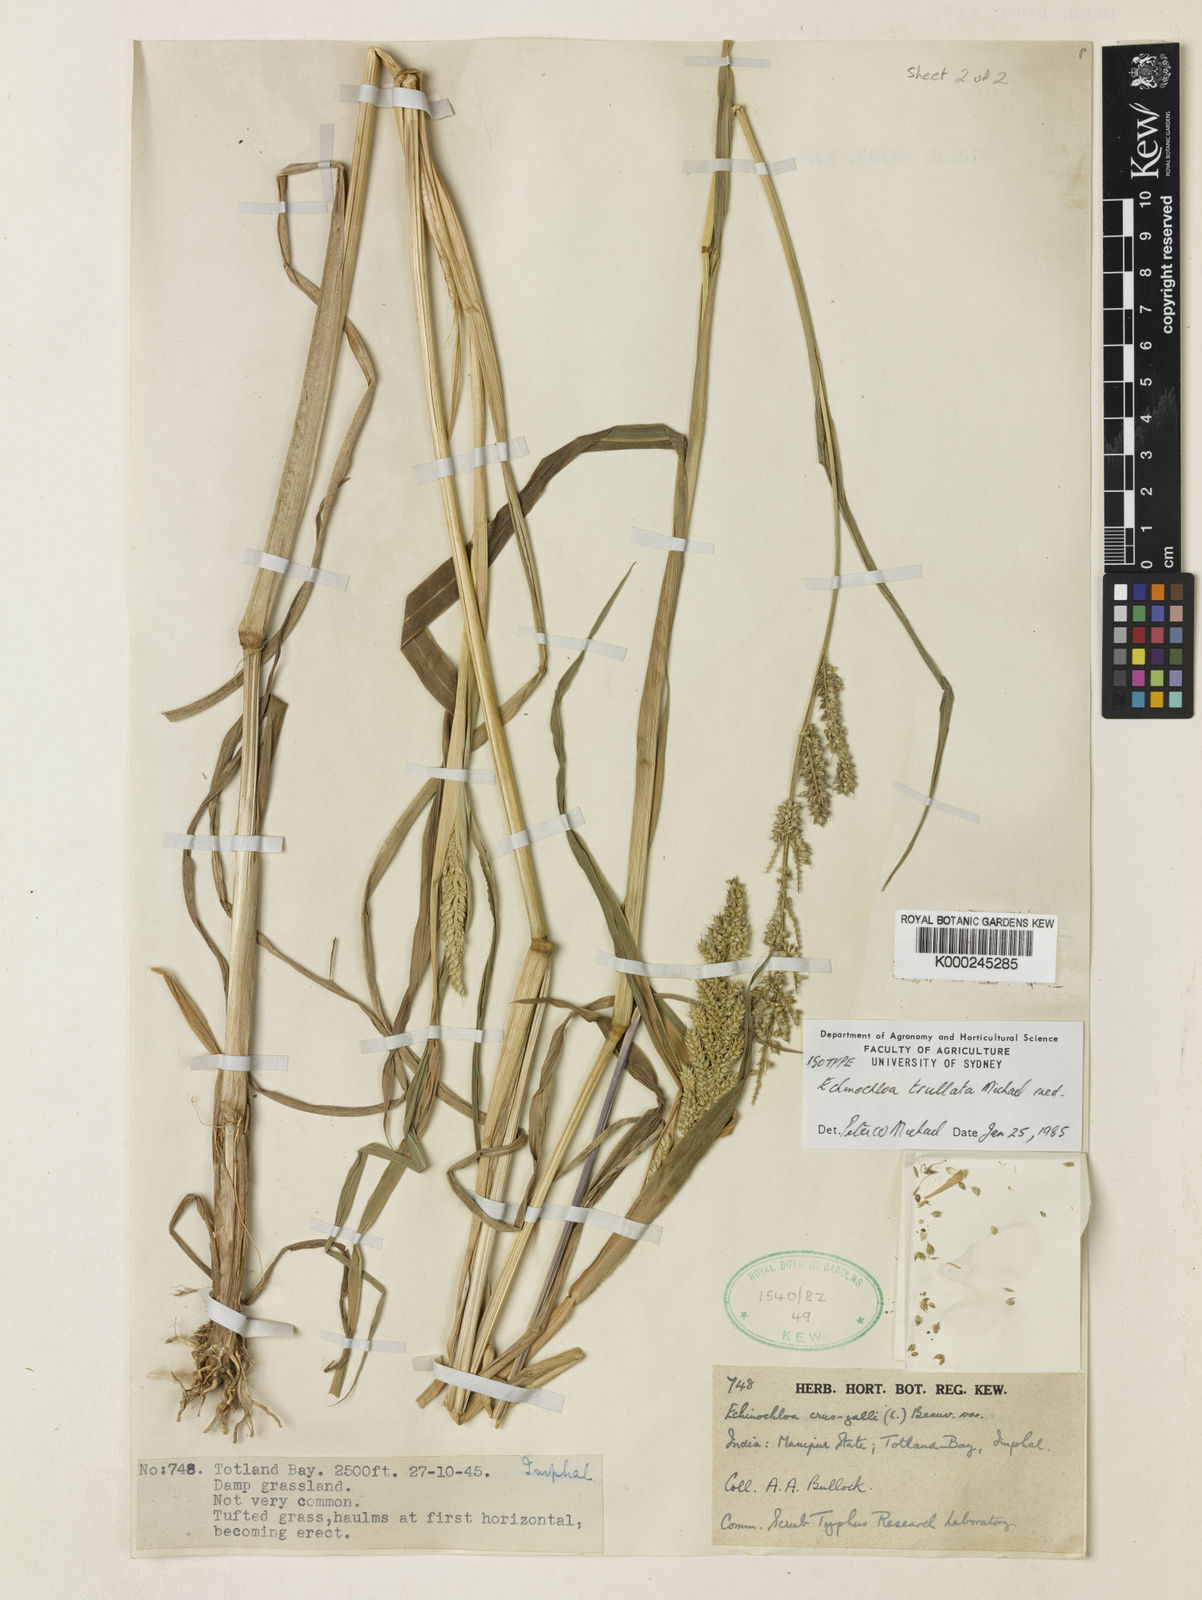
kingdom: Plantae
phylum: Tracheophyta
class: Liliopsida
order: Poales
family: Poaceae
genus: Echinochloa
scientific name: Echinochloa
